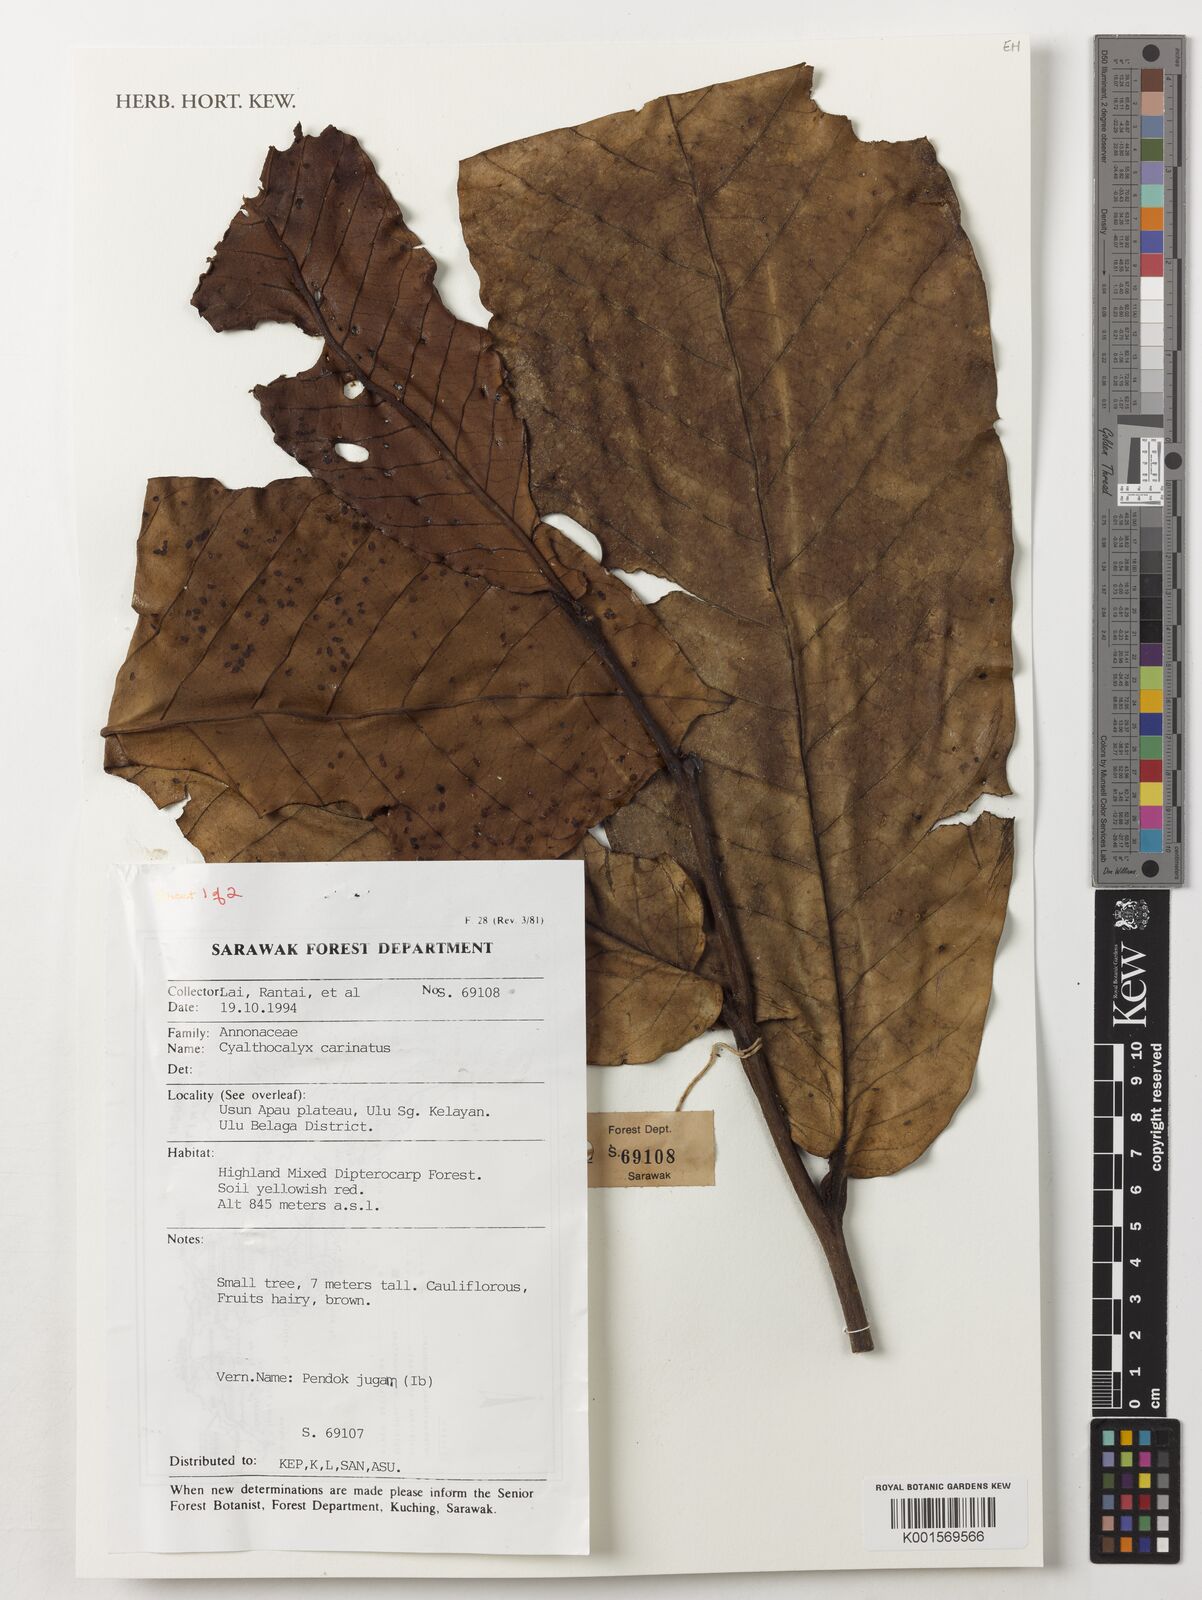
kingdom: Plantae
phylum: Tracheophyta
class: Magnoliopsida
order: Magnoliales
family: Annonaceae
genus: Drepananthus
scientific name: Drepananthus carinatus
